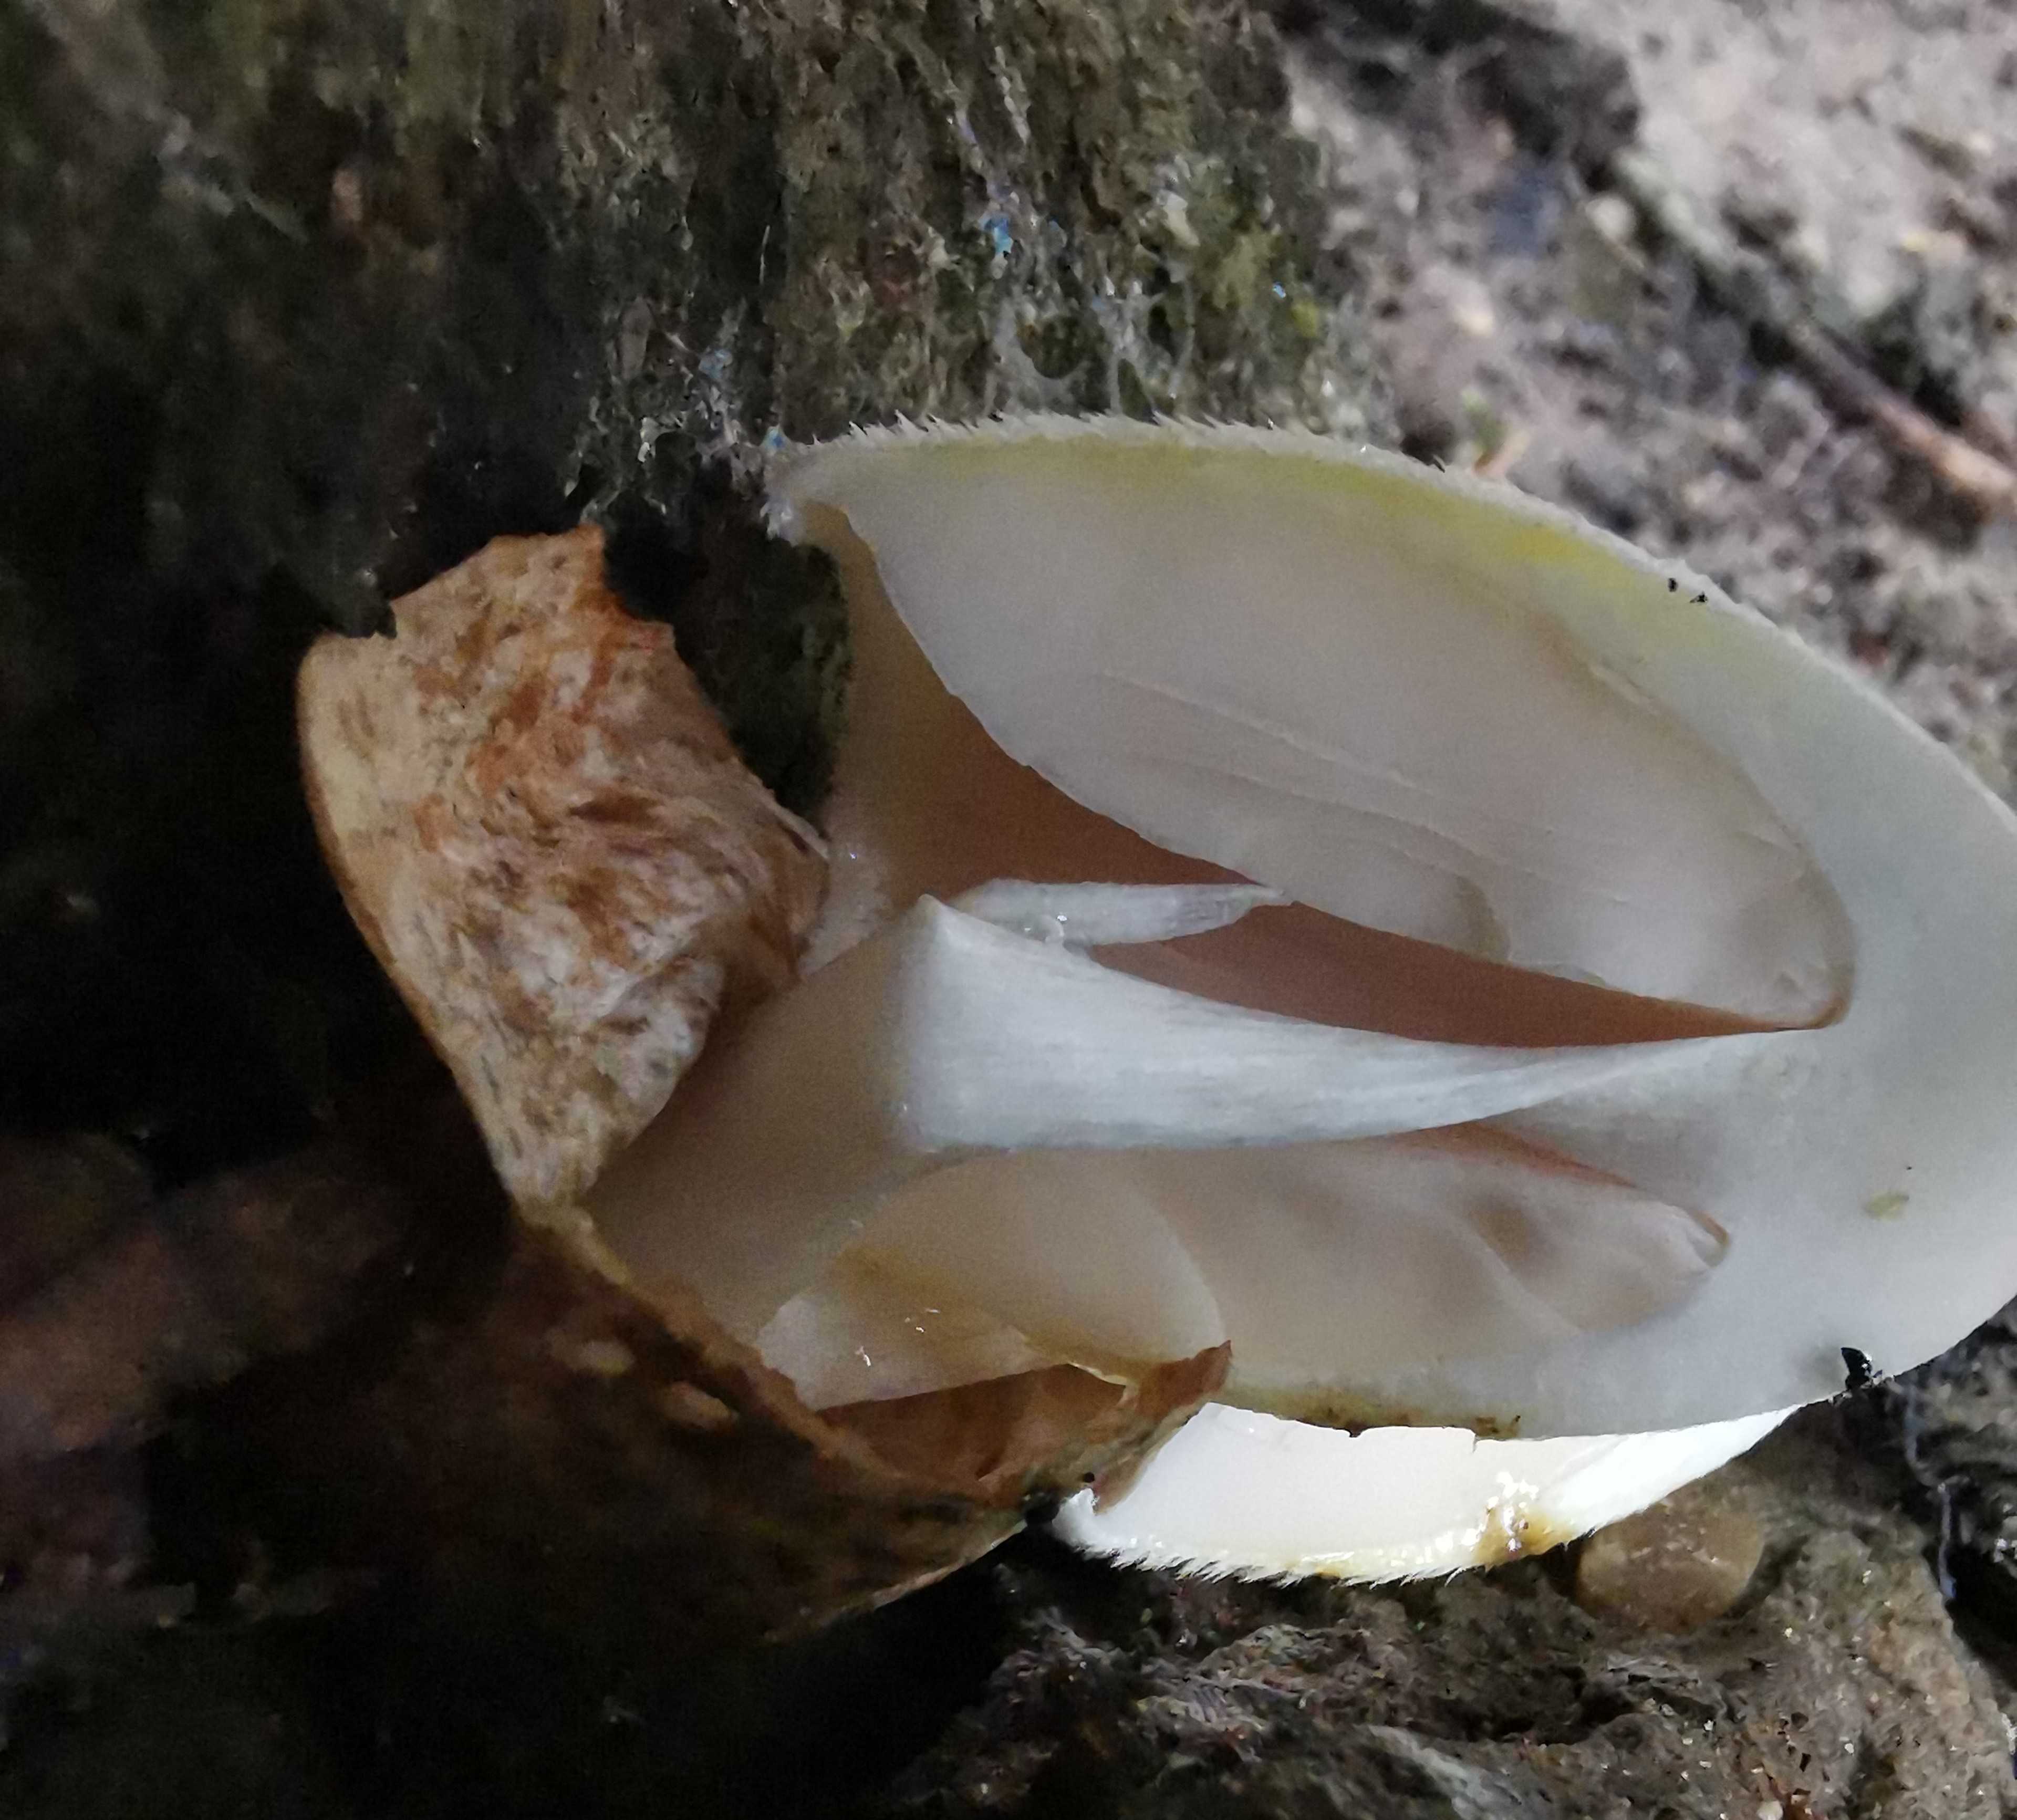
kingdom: Fungi
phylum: Basidiomycota
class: Agaricomycetes
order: Agaricales
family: Pluteaceae
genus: Volvariella
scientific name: Volvariella bombycina
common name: silkehåret posesvamp
